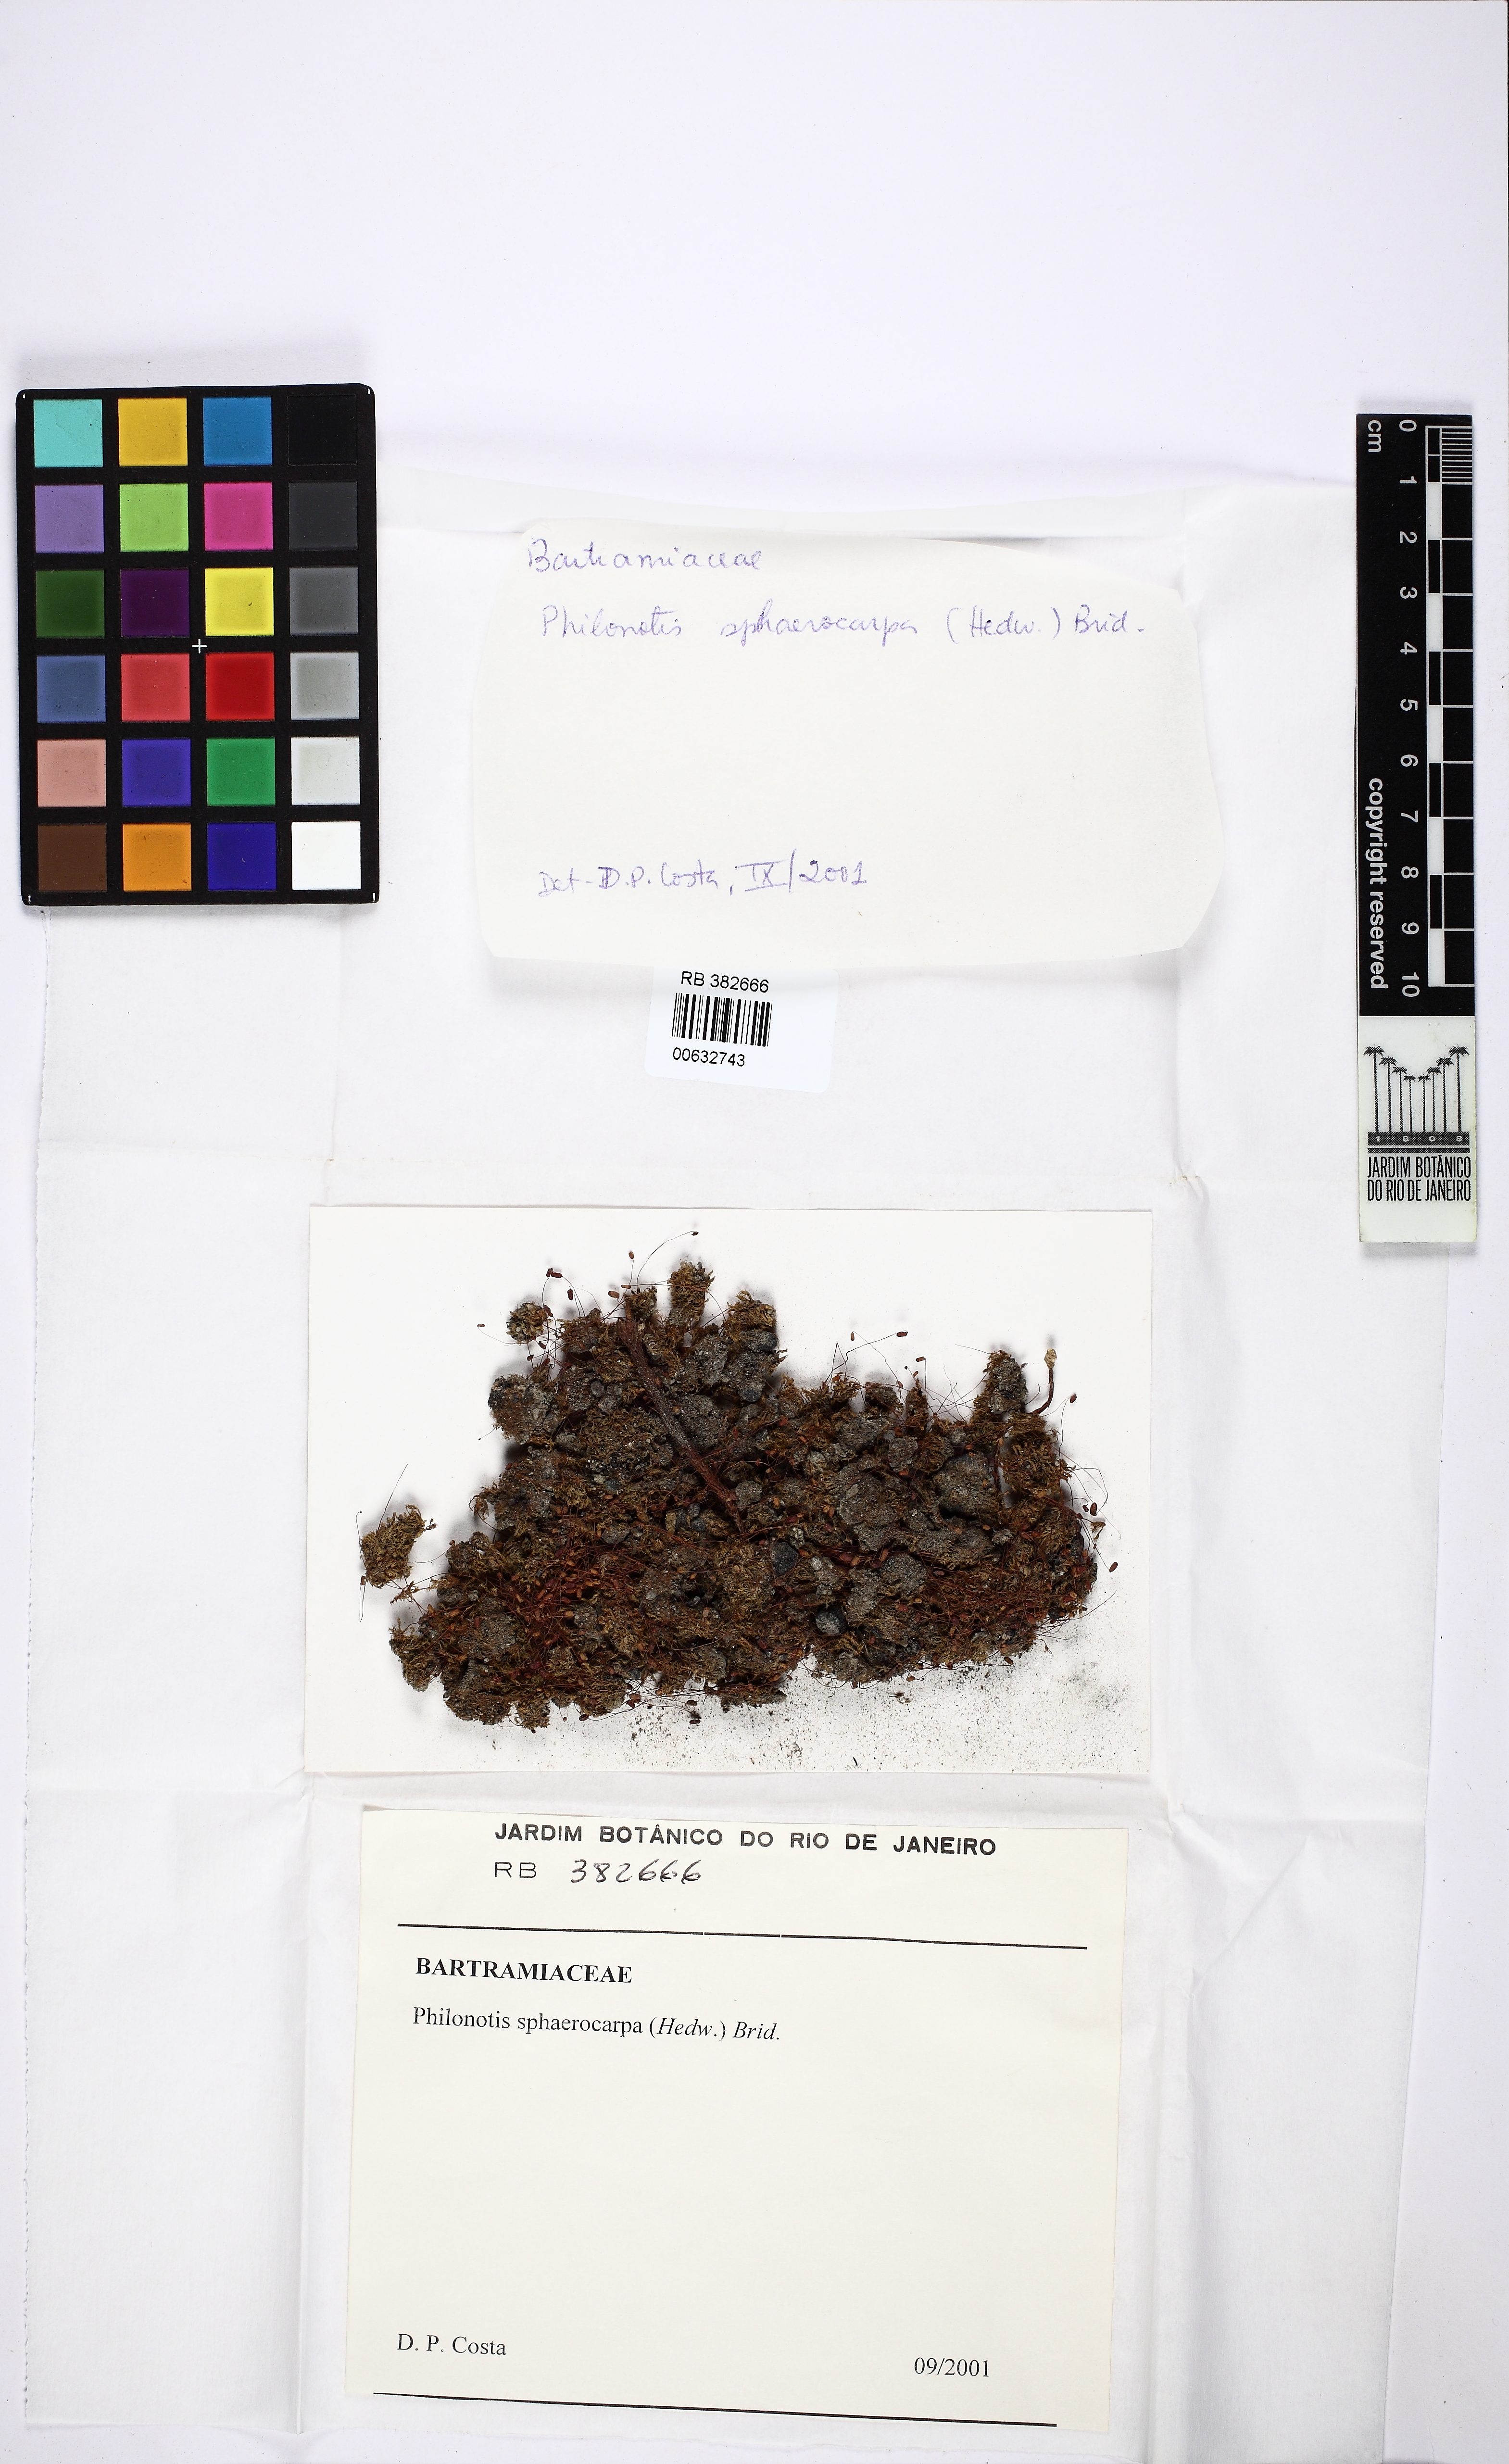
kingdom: Plantae
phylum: Bryophyta
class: Bryopsida
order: Bartramiales
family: Bartramiaceae
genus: Philonotis
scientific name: Philonotis sphaericarpa
